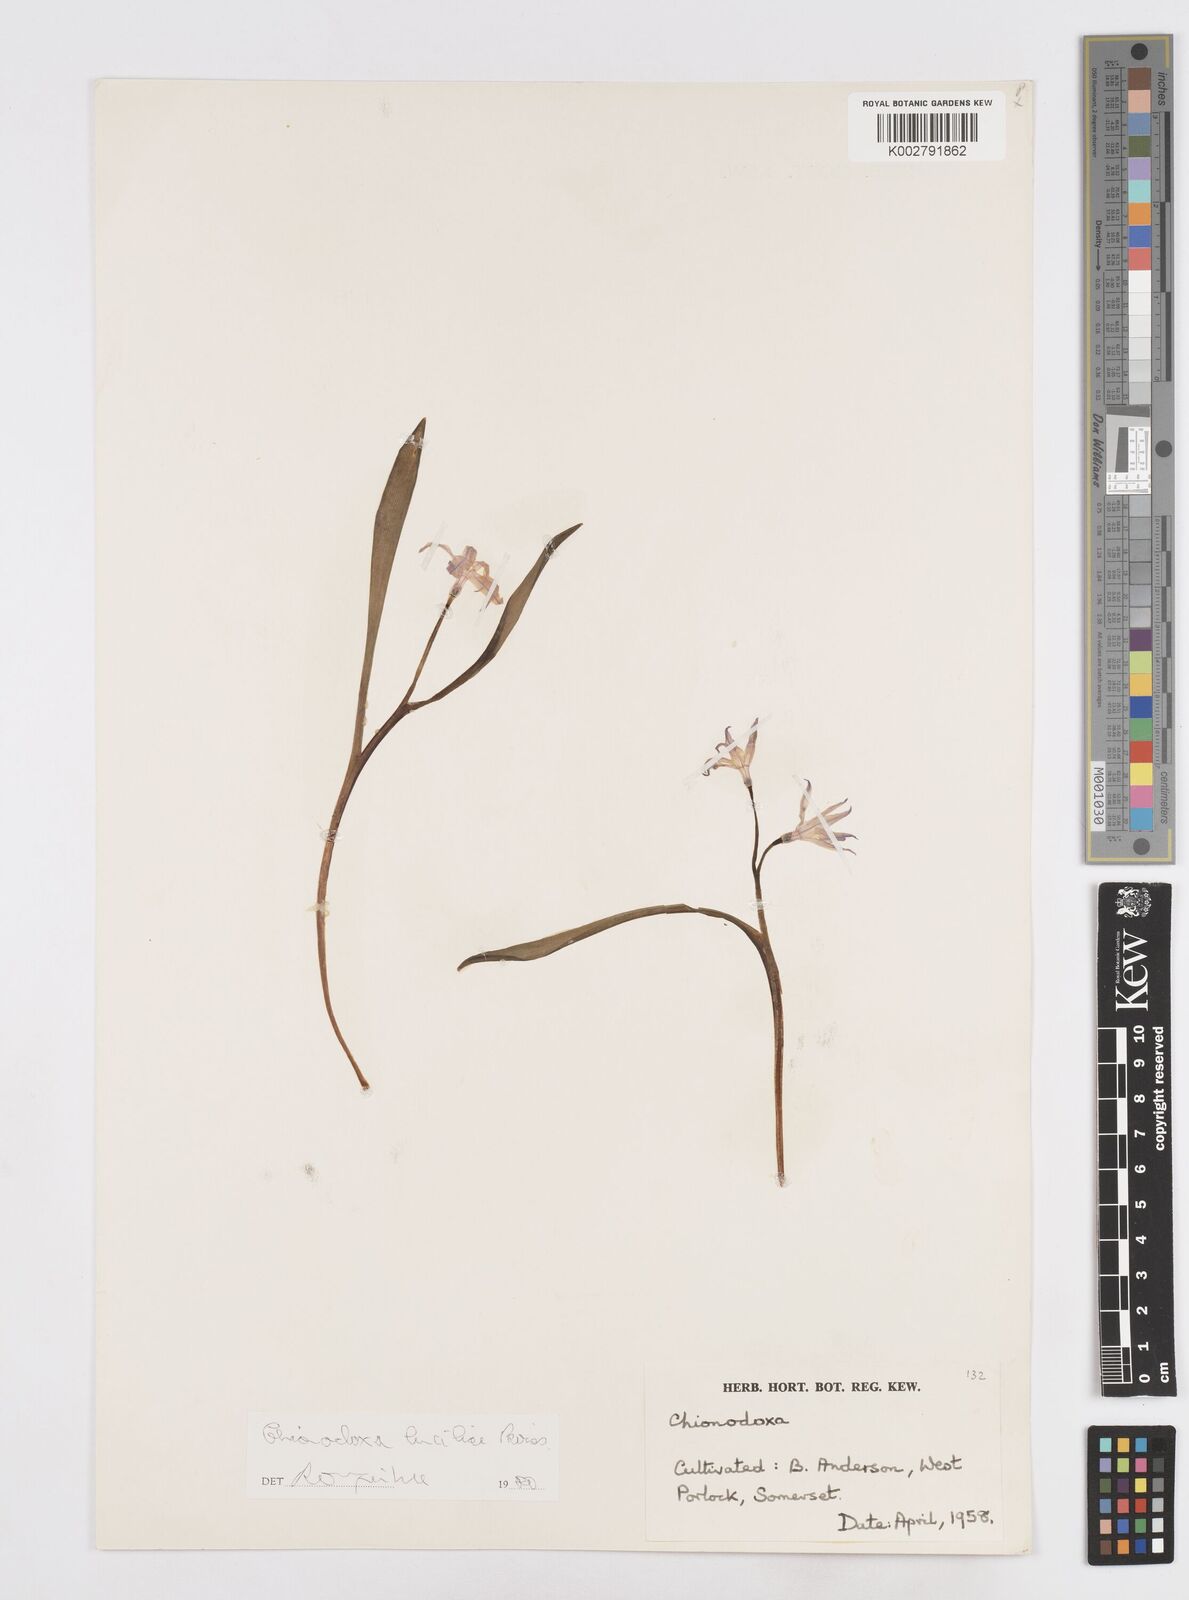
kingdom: Plantae
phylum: Tracheophyta
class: Liliopsida
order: Asparagales
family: Asparagaceae
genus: Scilla
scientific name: Scilla luciliae
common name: Boissier's glory-of-the-snow
